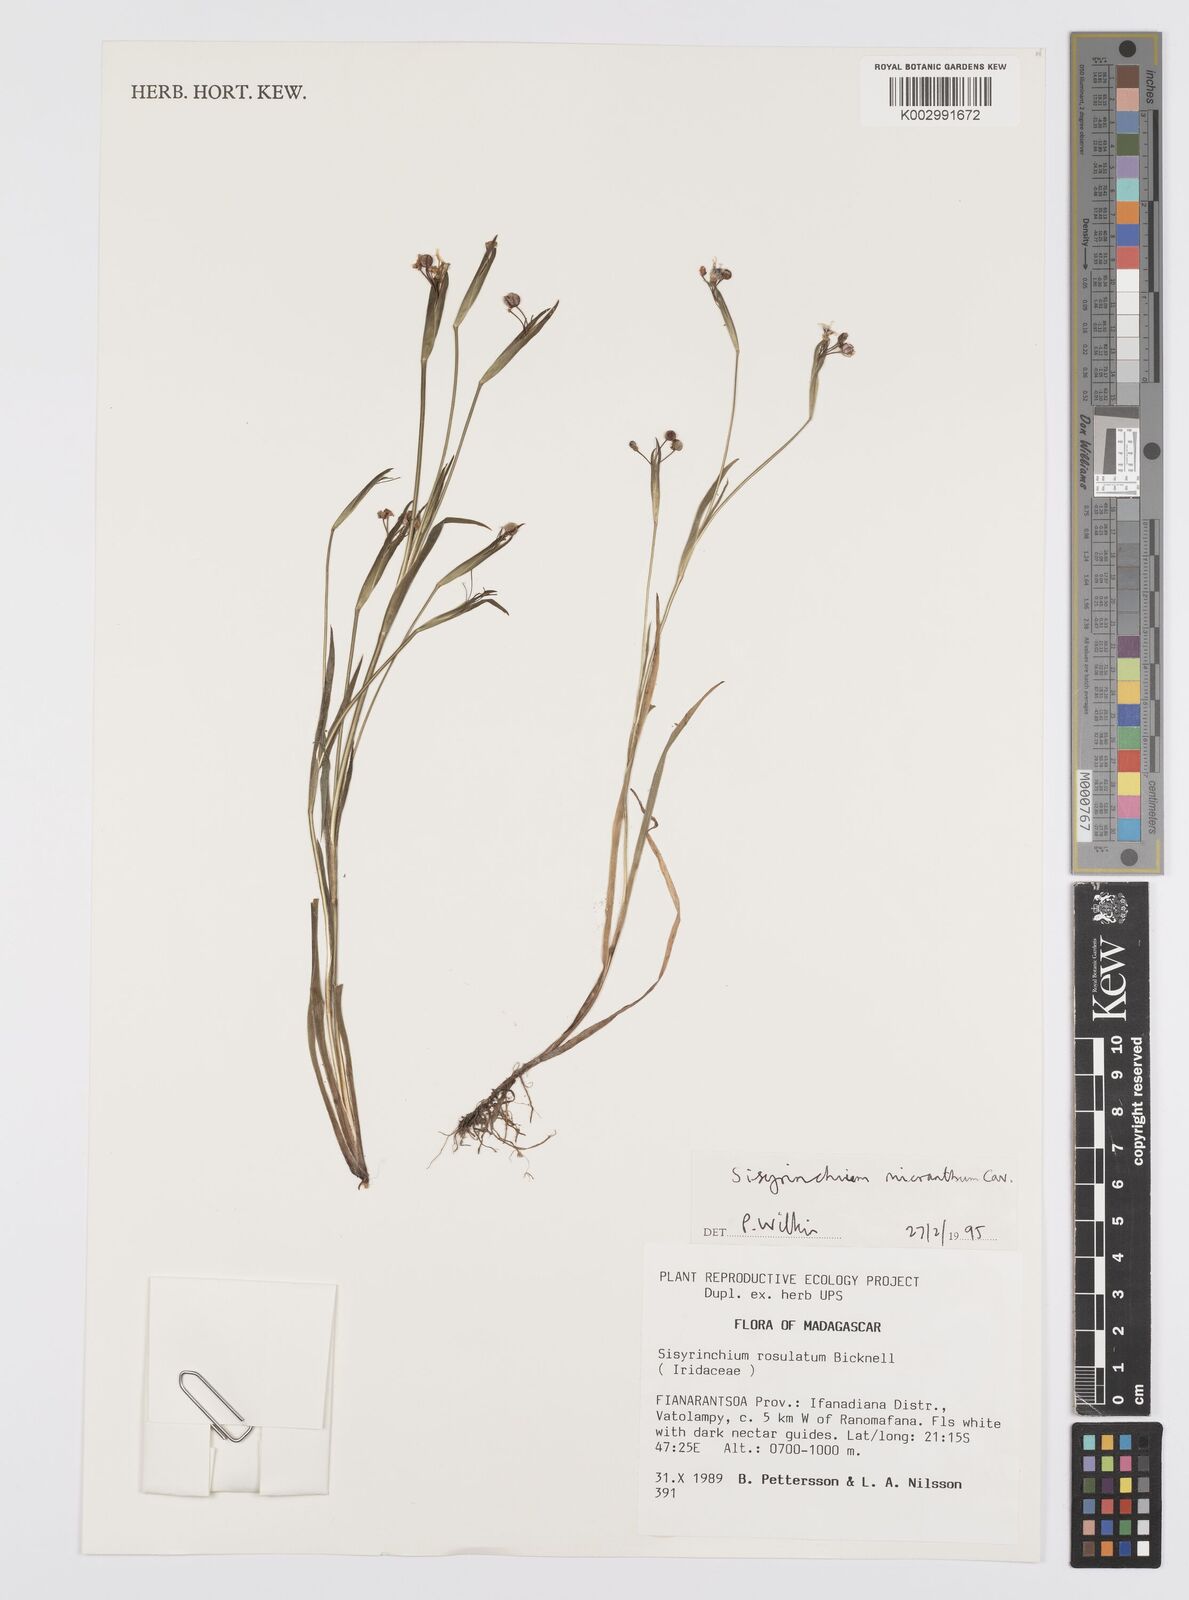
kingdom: Plantae
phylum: Tracheophyta
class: Liliopsida
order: Asparagales
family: Iridaceae
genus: Sisyrinchium
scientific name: Sisyrinchium micranthum
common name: Bermuda pigroot
